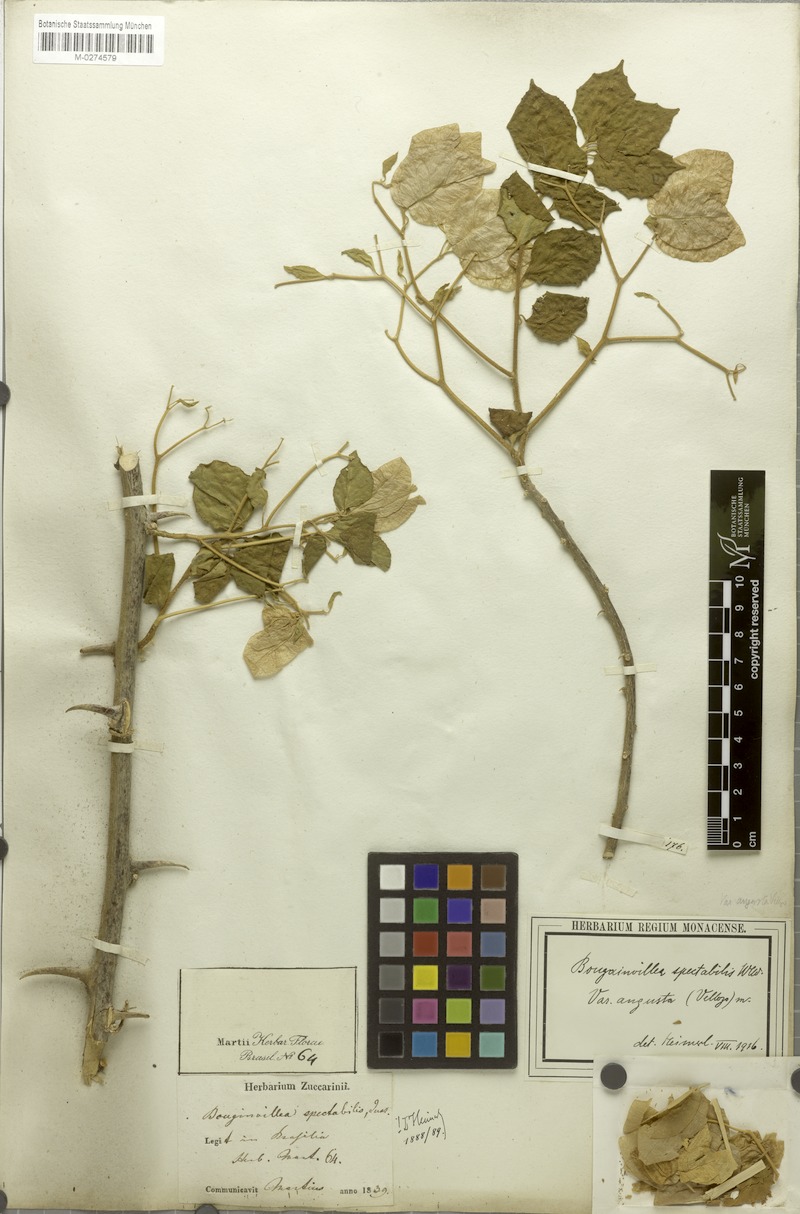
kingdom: Plantae
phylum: Tracheophyta
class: Magnoliopsida
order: Caryophyllales
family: Nyctaginaceae
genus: Bougainvillea
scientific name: Bougainvillea spectabilis
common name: Great bougainvillea
